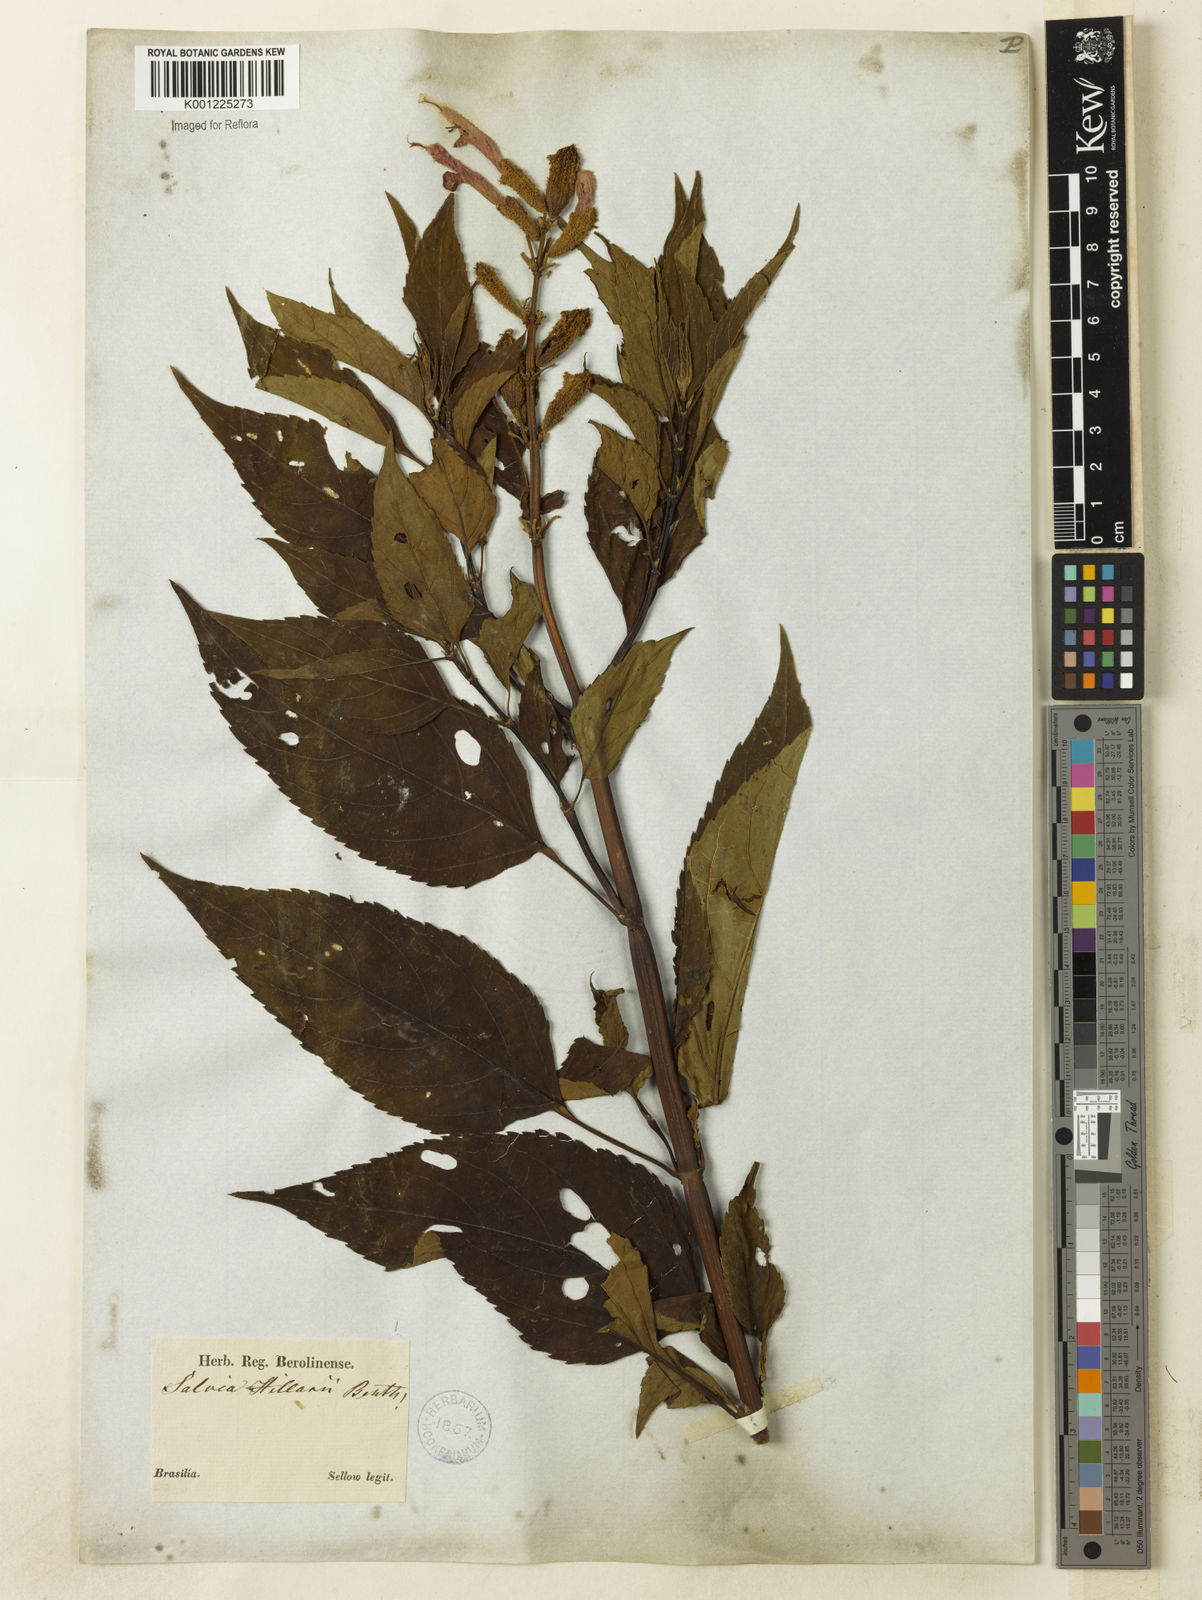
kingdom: Plantae
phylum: Tracheophyta
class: Magnoliopsida
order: Lamiales
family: Lamiaceae
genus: Salvia
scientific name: Salvia hilarii
